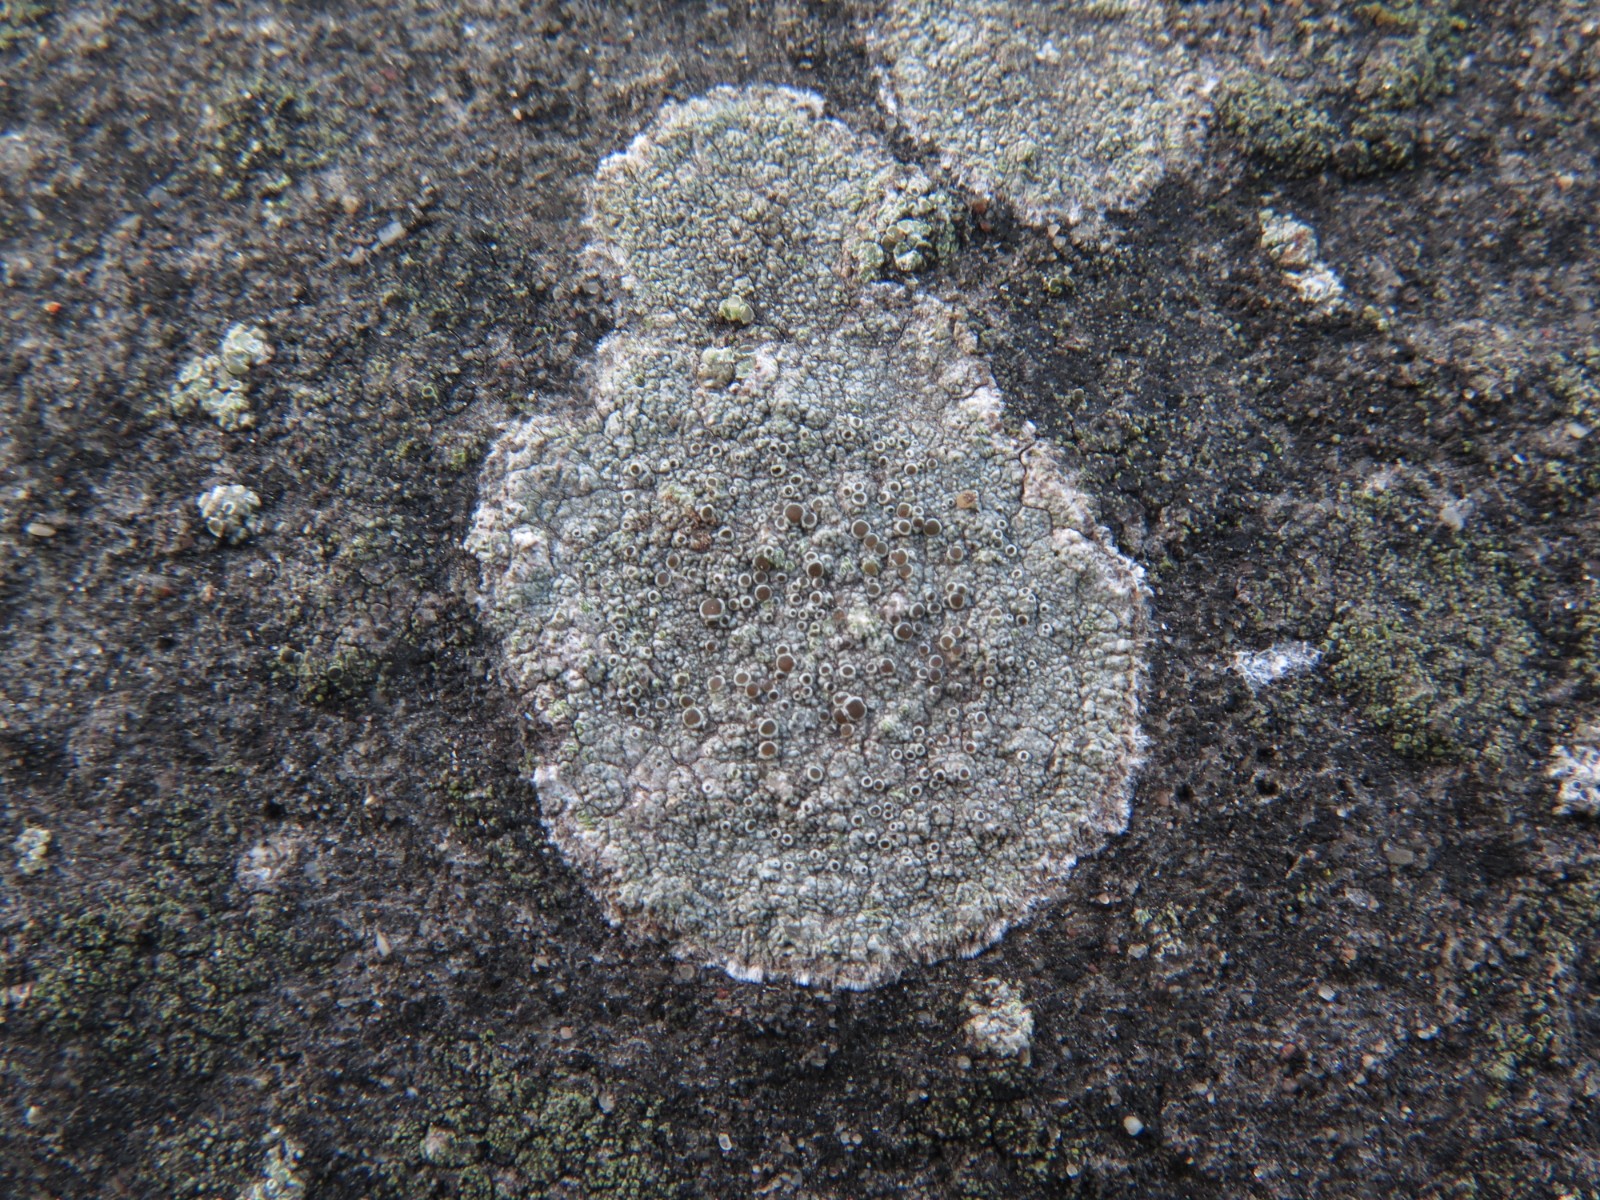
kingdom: Fungi
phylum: Ascomycota
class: Lecanoromycetes
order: Lecanorales
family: Lecanoraceae
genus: Lecanora
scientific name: Lecanora campestris
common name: mur-kantskivelav
